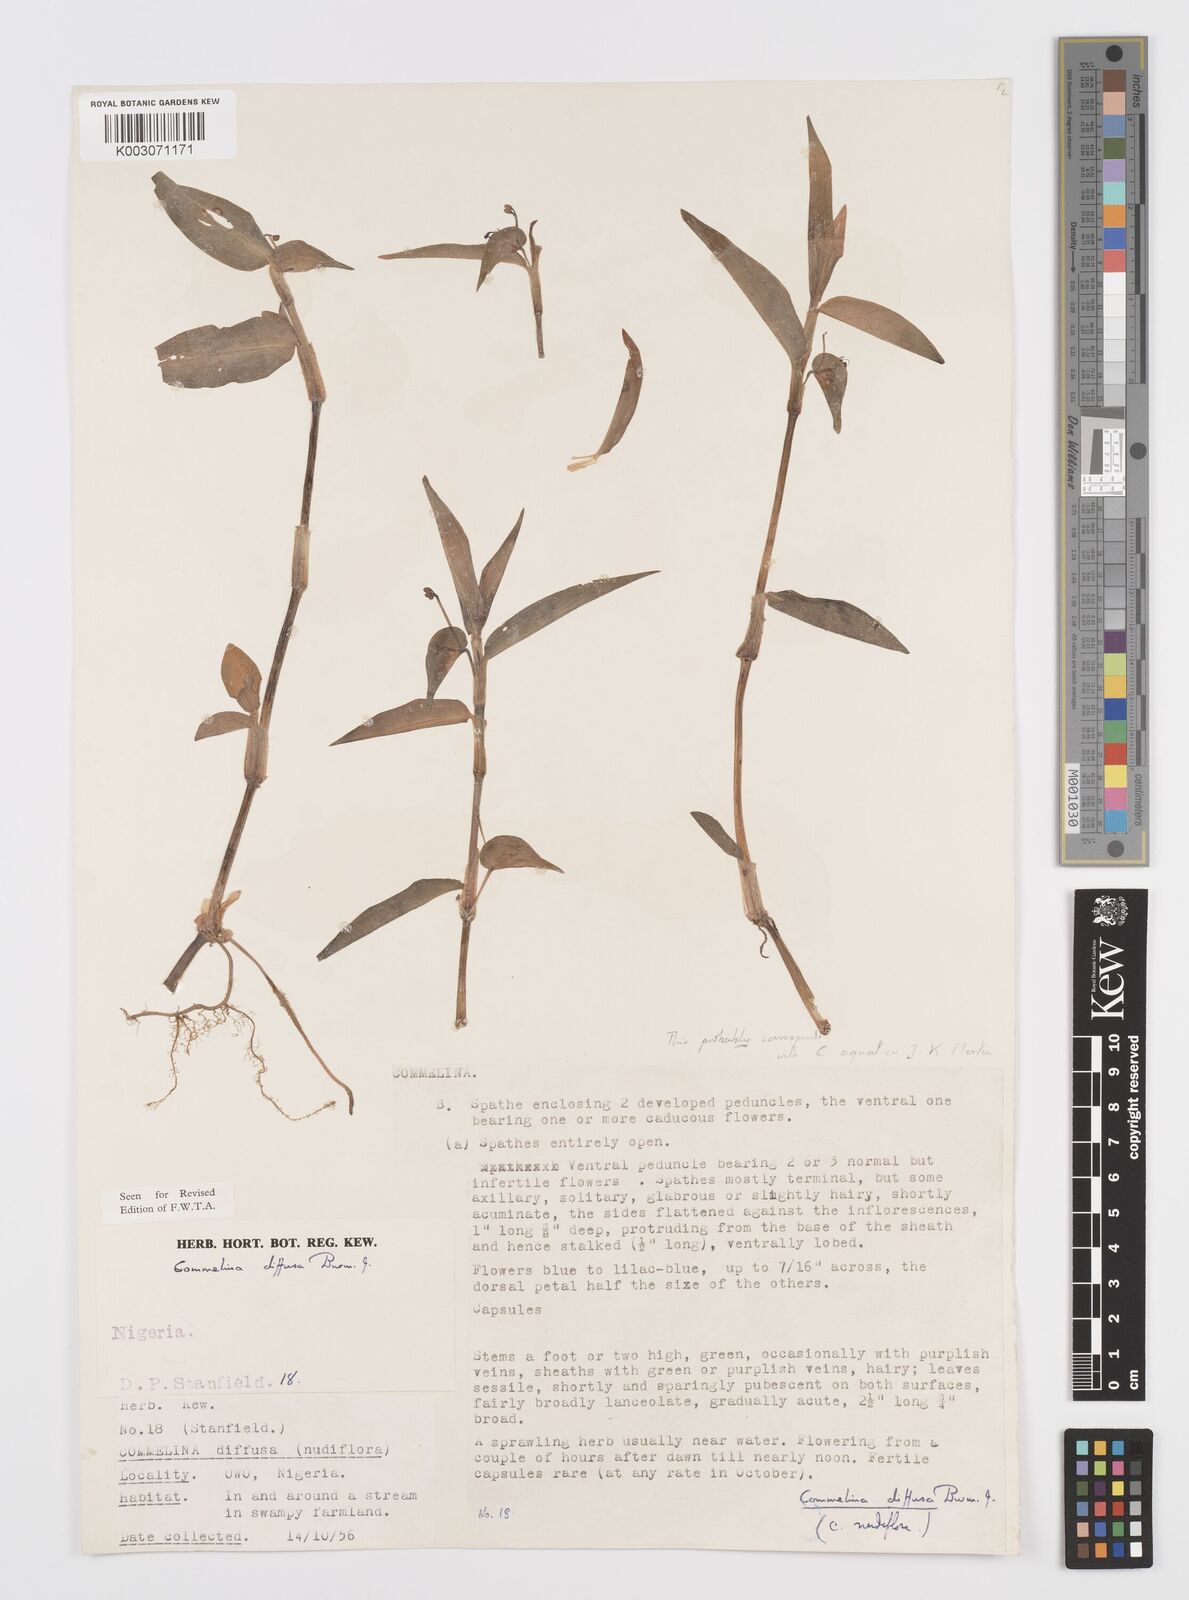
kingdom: Plantae
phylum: Tracheophyta
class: Liliopsida
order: Commelinales
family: Commelinaceae
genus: Commelina
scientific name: Commelina diffusa
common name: Climbing dayflower
